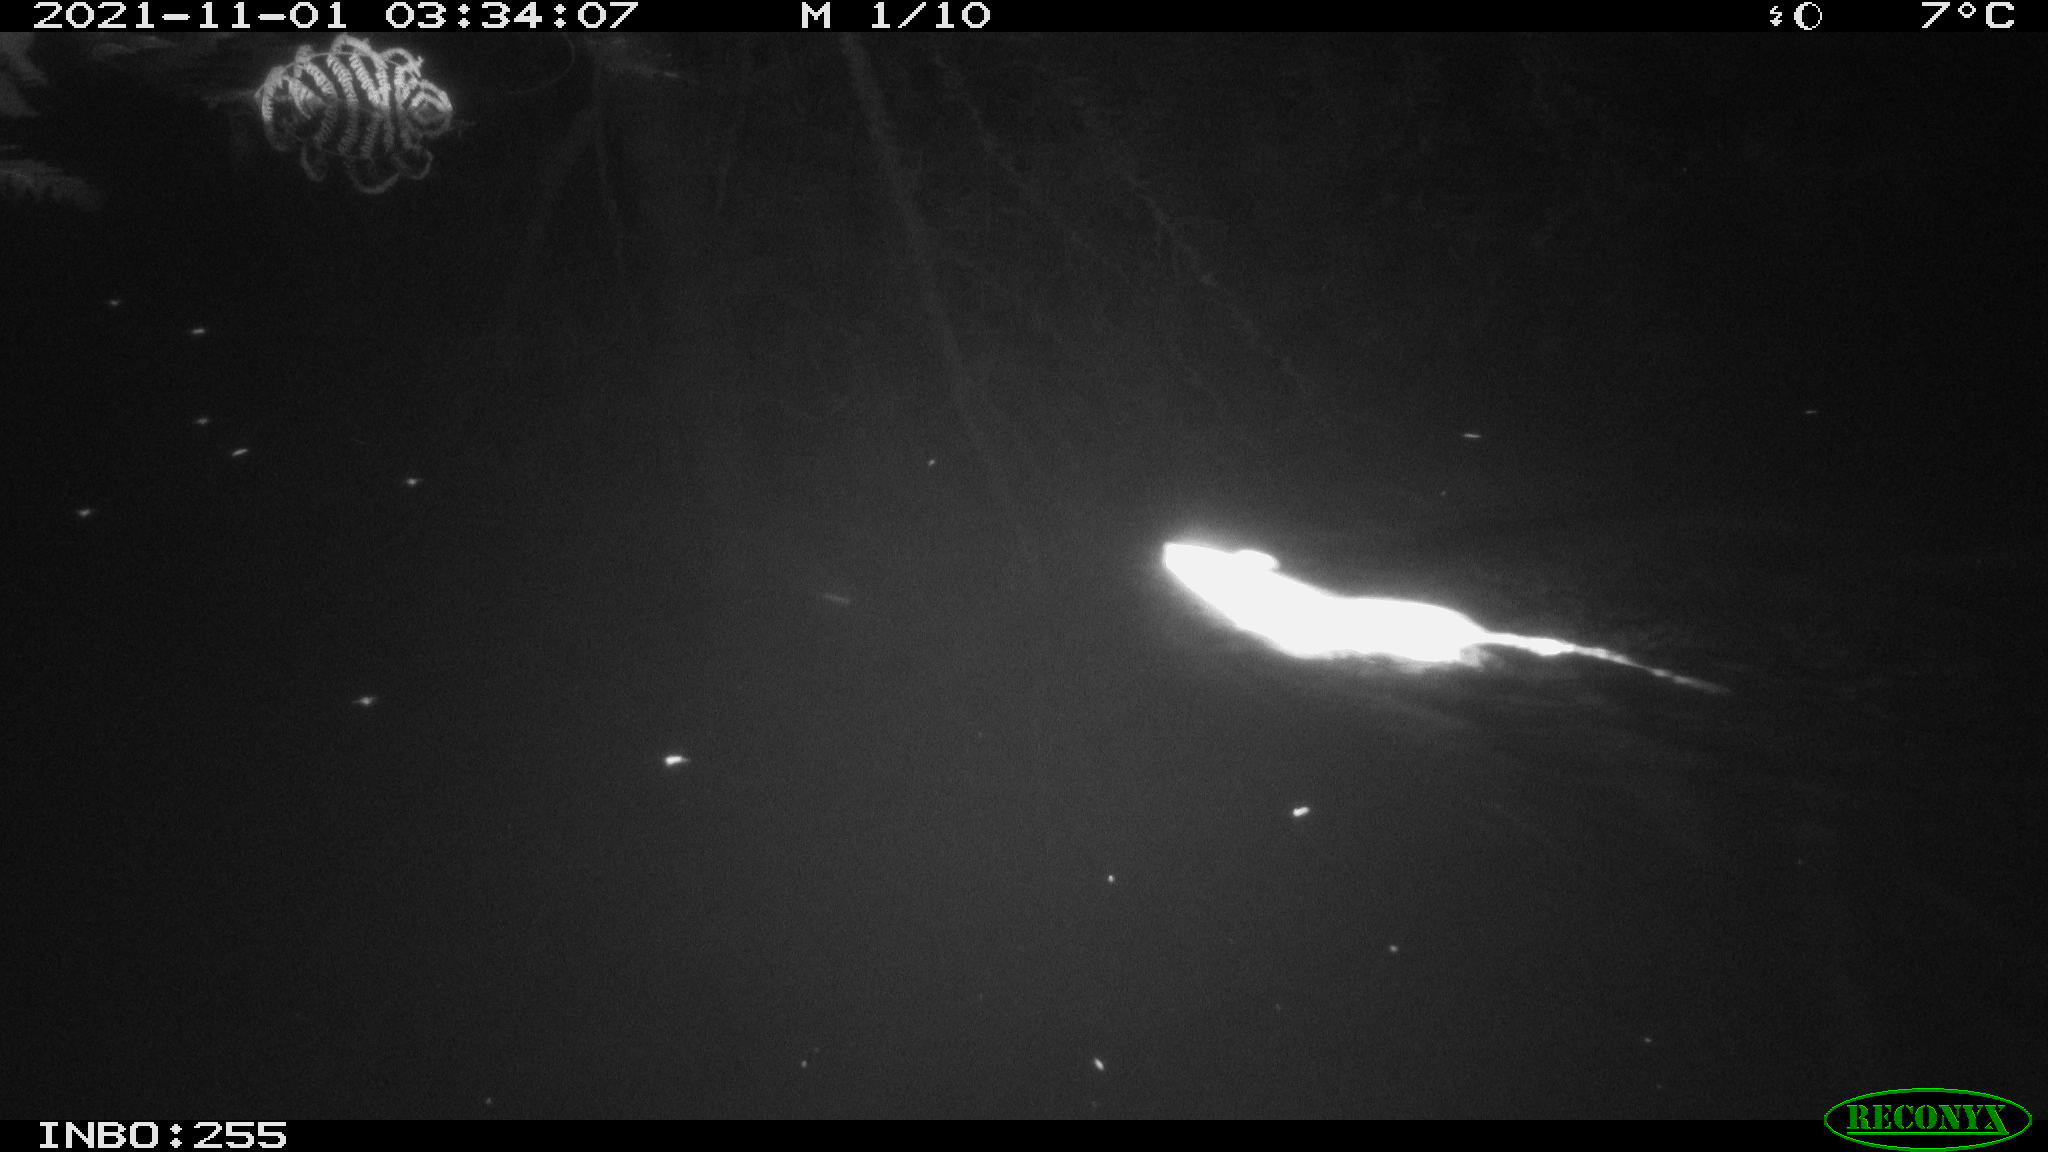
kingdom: Animalia
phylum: Chordata
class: Mammalia
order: Rodentia
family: Muridae
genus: Rattus
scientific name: Rattus norvegicus
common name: Brown rat
